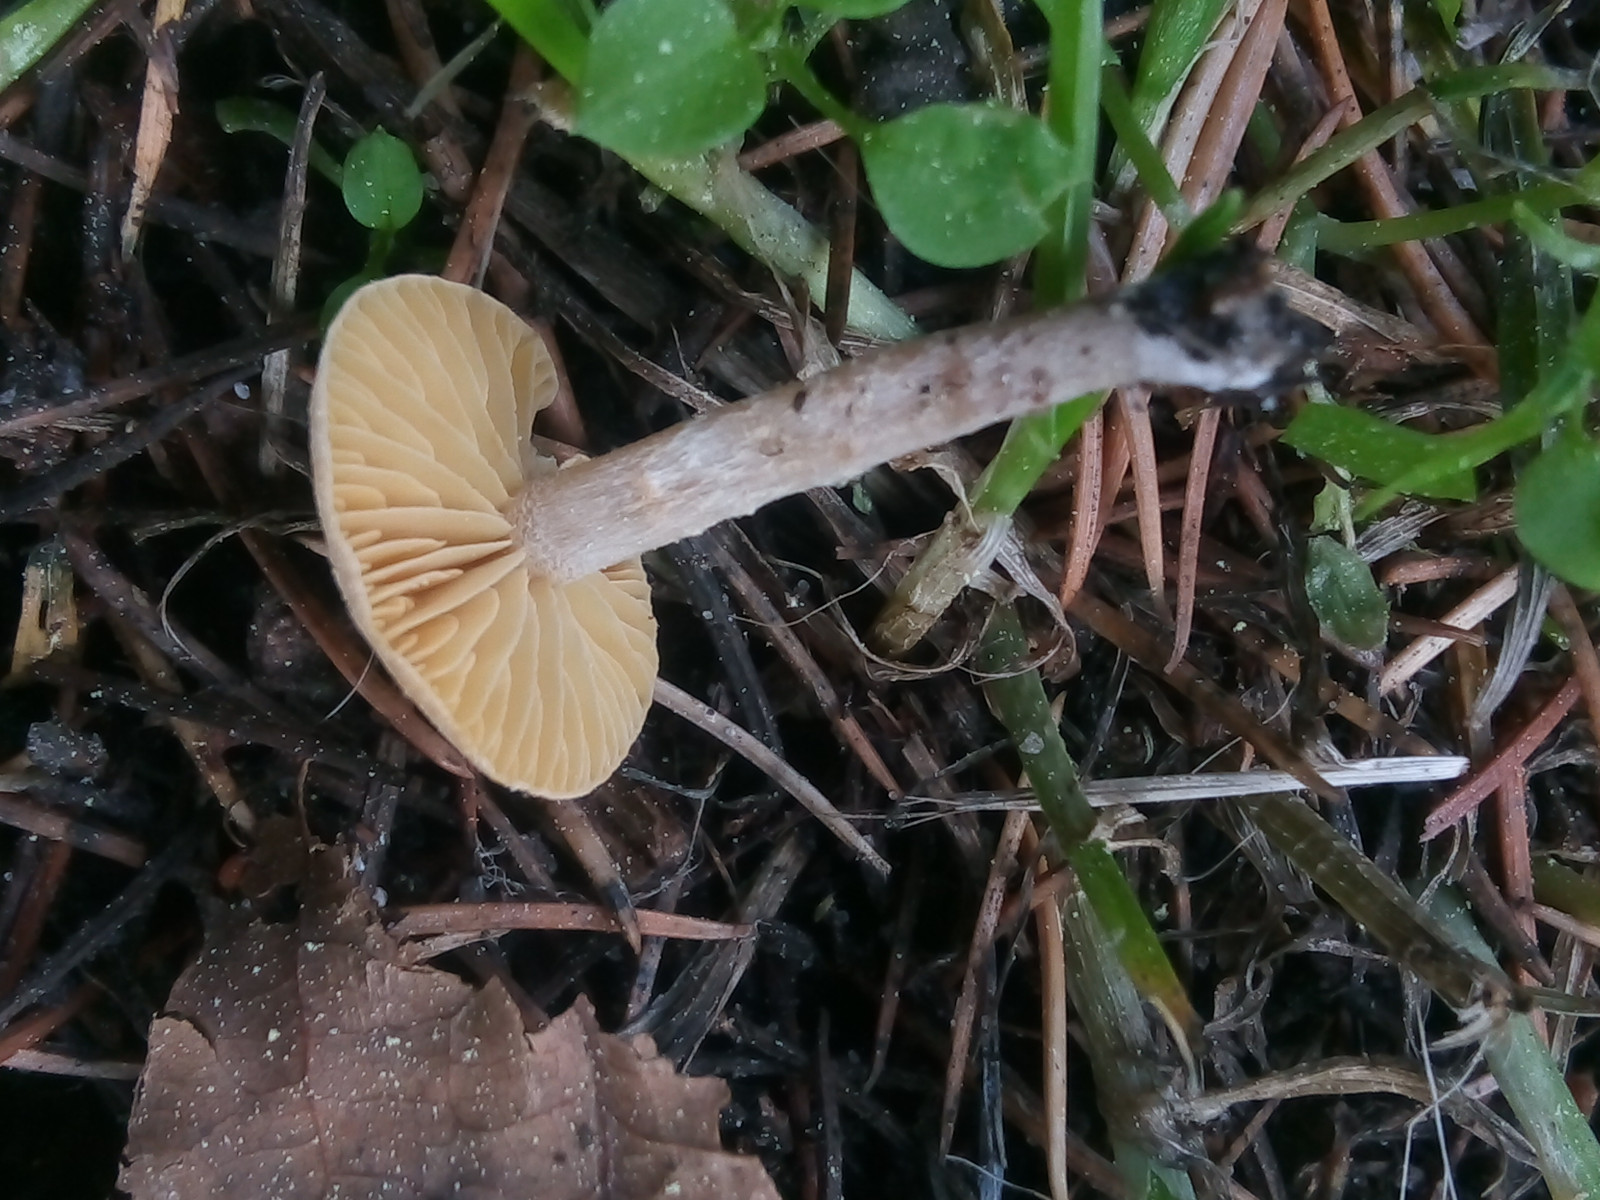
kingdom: Fungi
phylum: Basidiomycota
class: Agaricomycetes
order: Agaricales
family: Tubariaceae
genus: Tubaria
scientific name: Tubaria dispersa
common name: tjørne-fnughat
